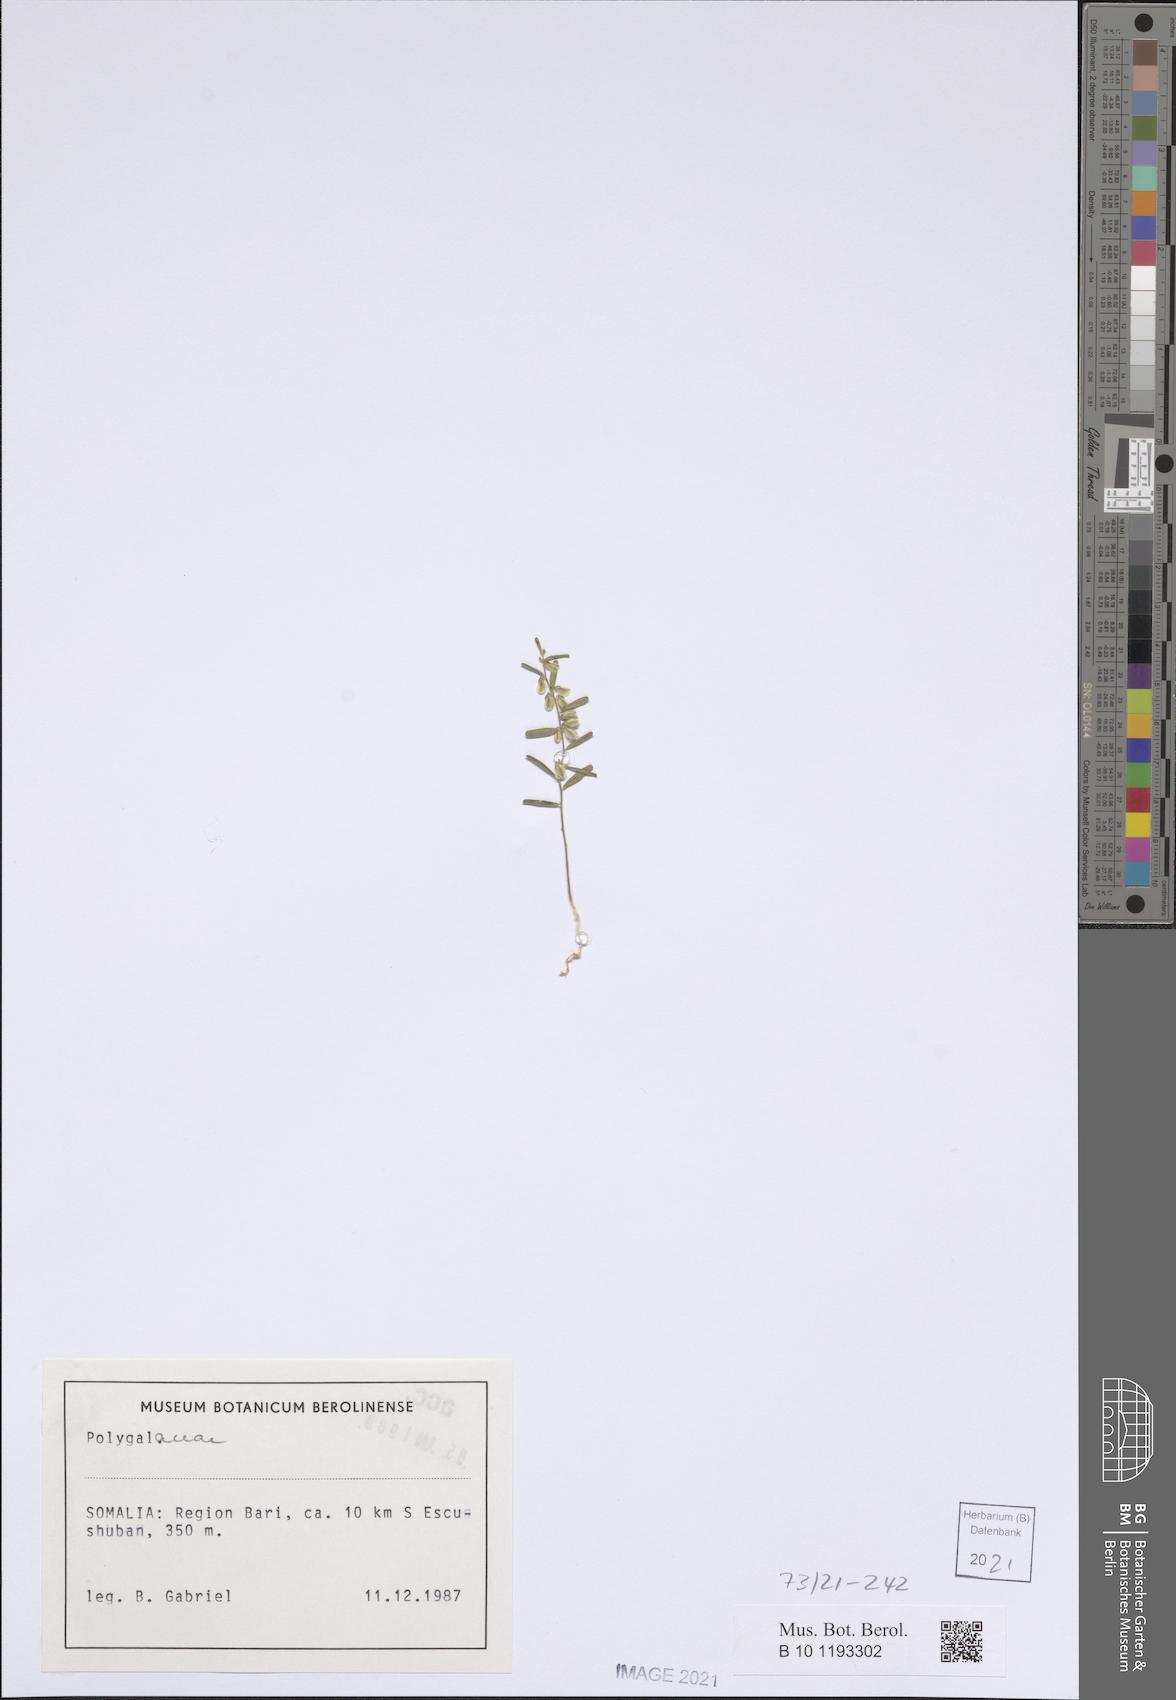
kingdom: Plantae
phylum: Tracheophyta
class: Magnoliopsida
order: Fabales
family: Polygalaceae
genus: Polygala
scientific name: Polygala erioptera
